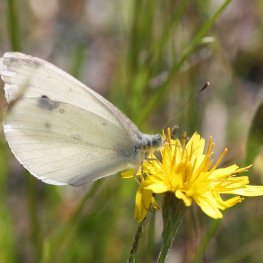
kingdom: Animalia
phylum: Arthropoda
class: Insecta
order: Lepidoptera
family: Pieridae
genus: Pieris
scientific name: Pieris rapae
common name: Cabbage White
